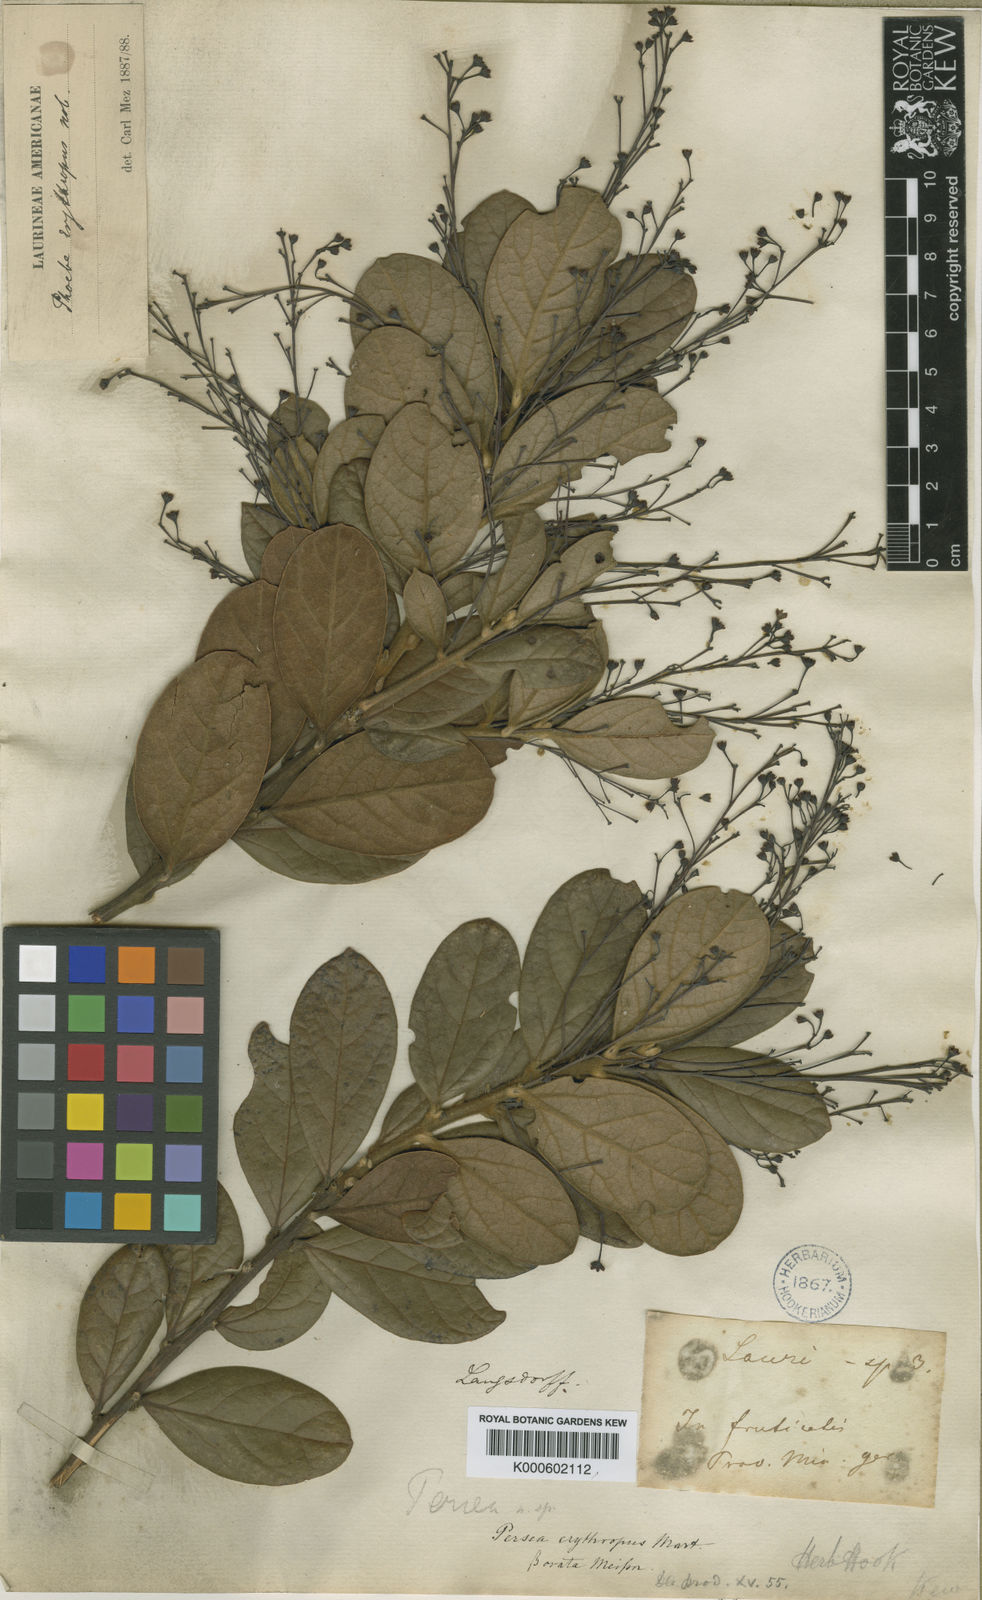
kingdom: Plantae
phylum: Tracheophyta
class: Magnoliopsida
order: Laurales
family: Lauraceae
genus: Aiouea
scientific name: Aiouea erythropus
